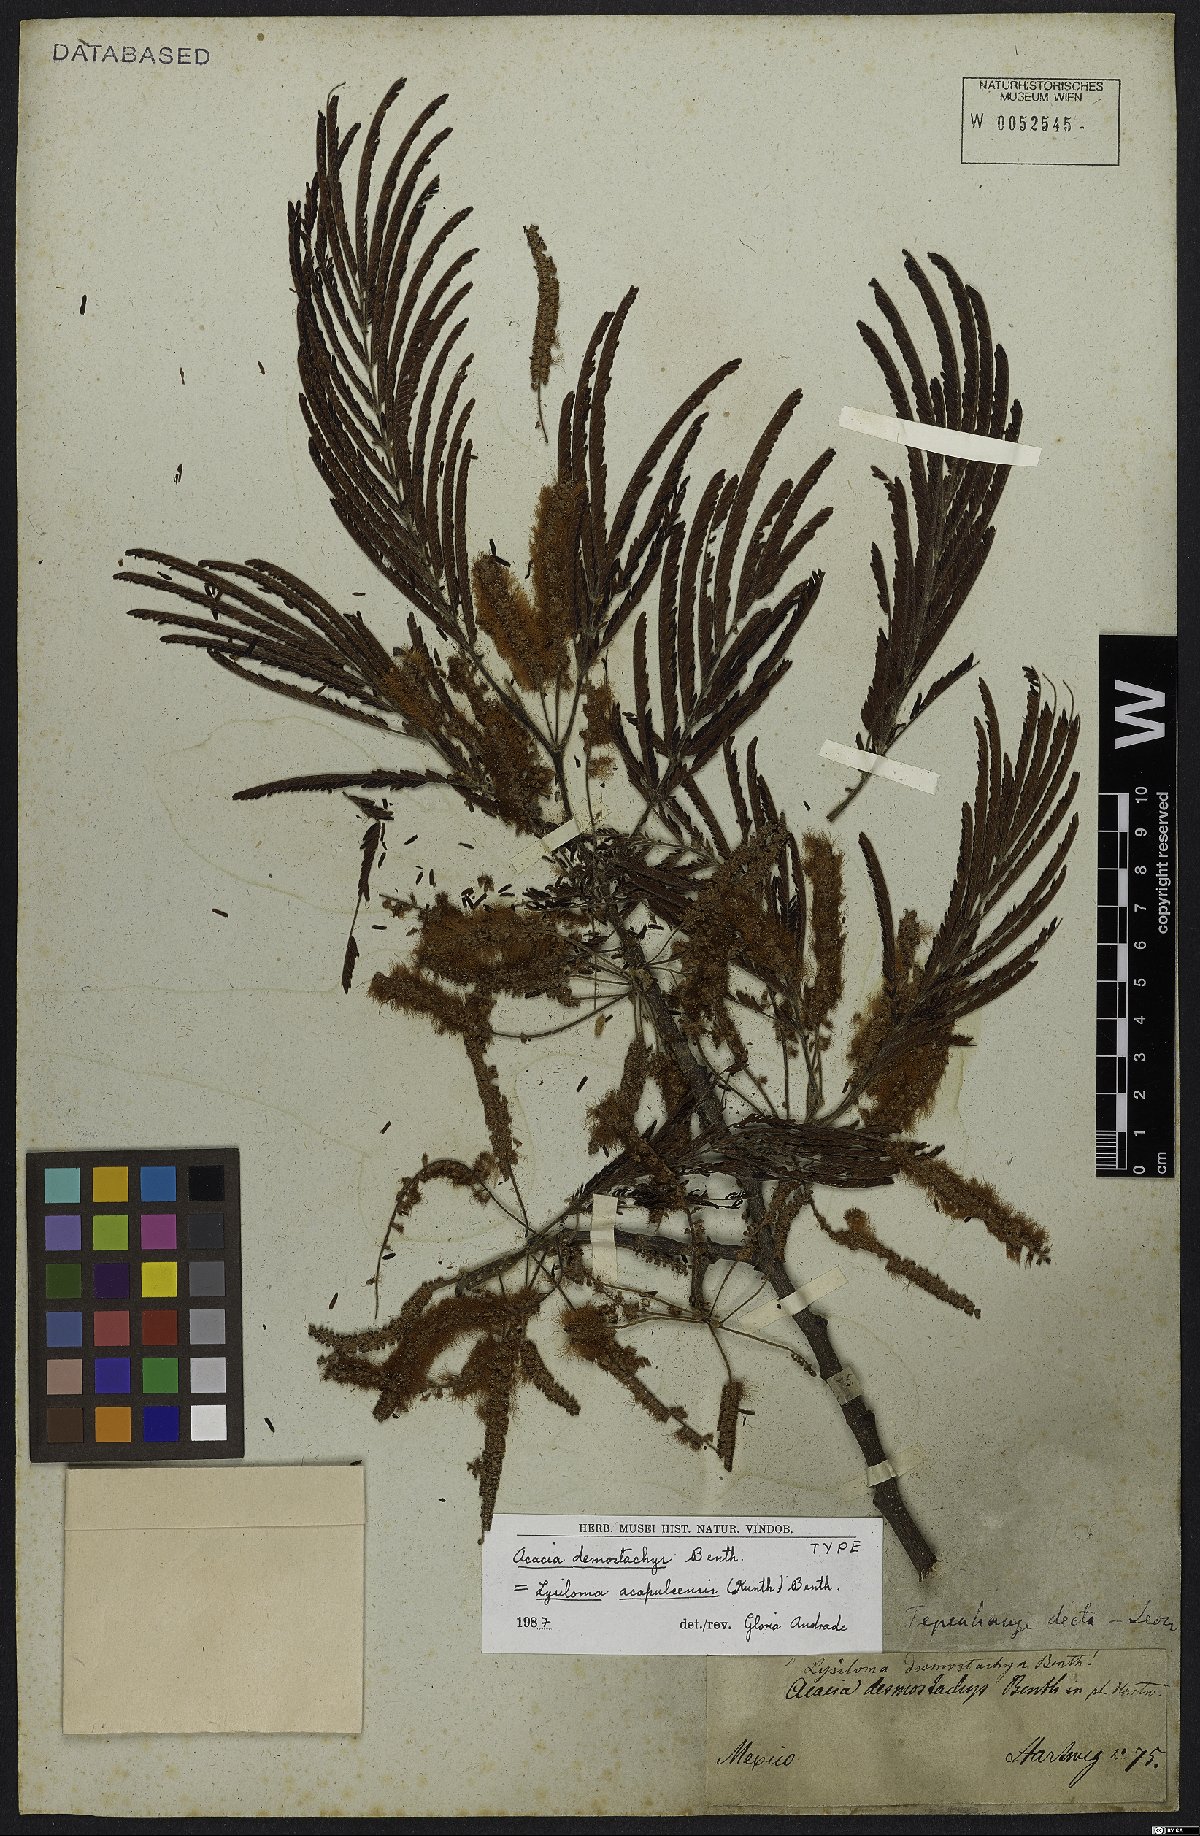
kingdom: Plantae
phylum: Tracheophyta
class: Magnoliopsida
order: Fabales
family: Fabaceae
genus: Lysiloma
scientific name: Lysiloma acapulcense
